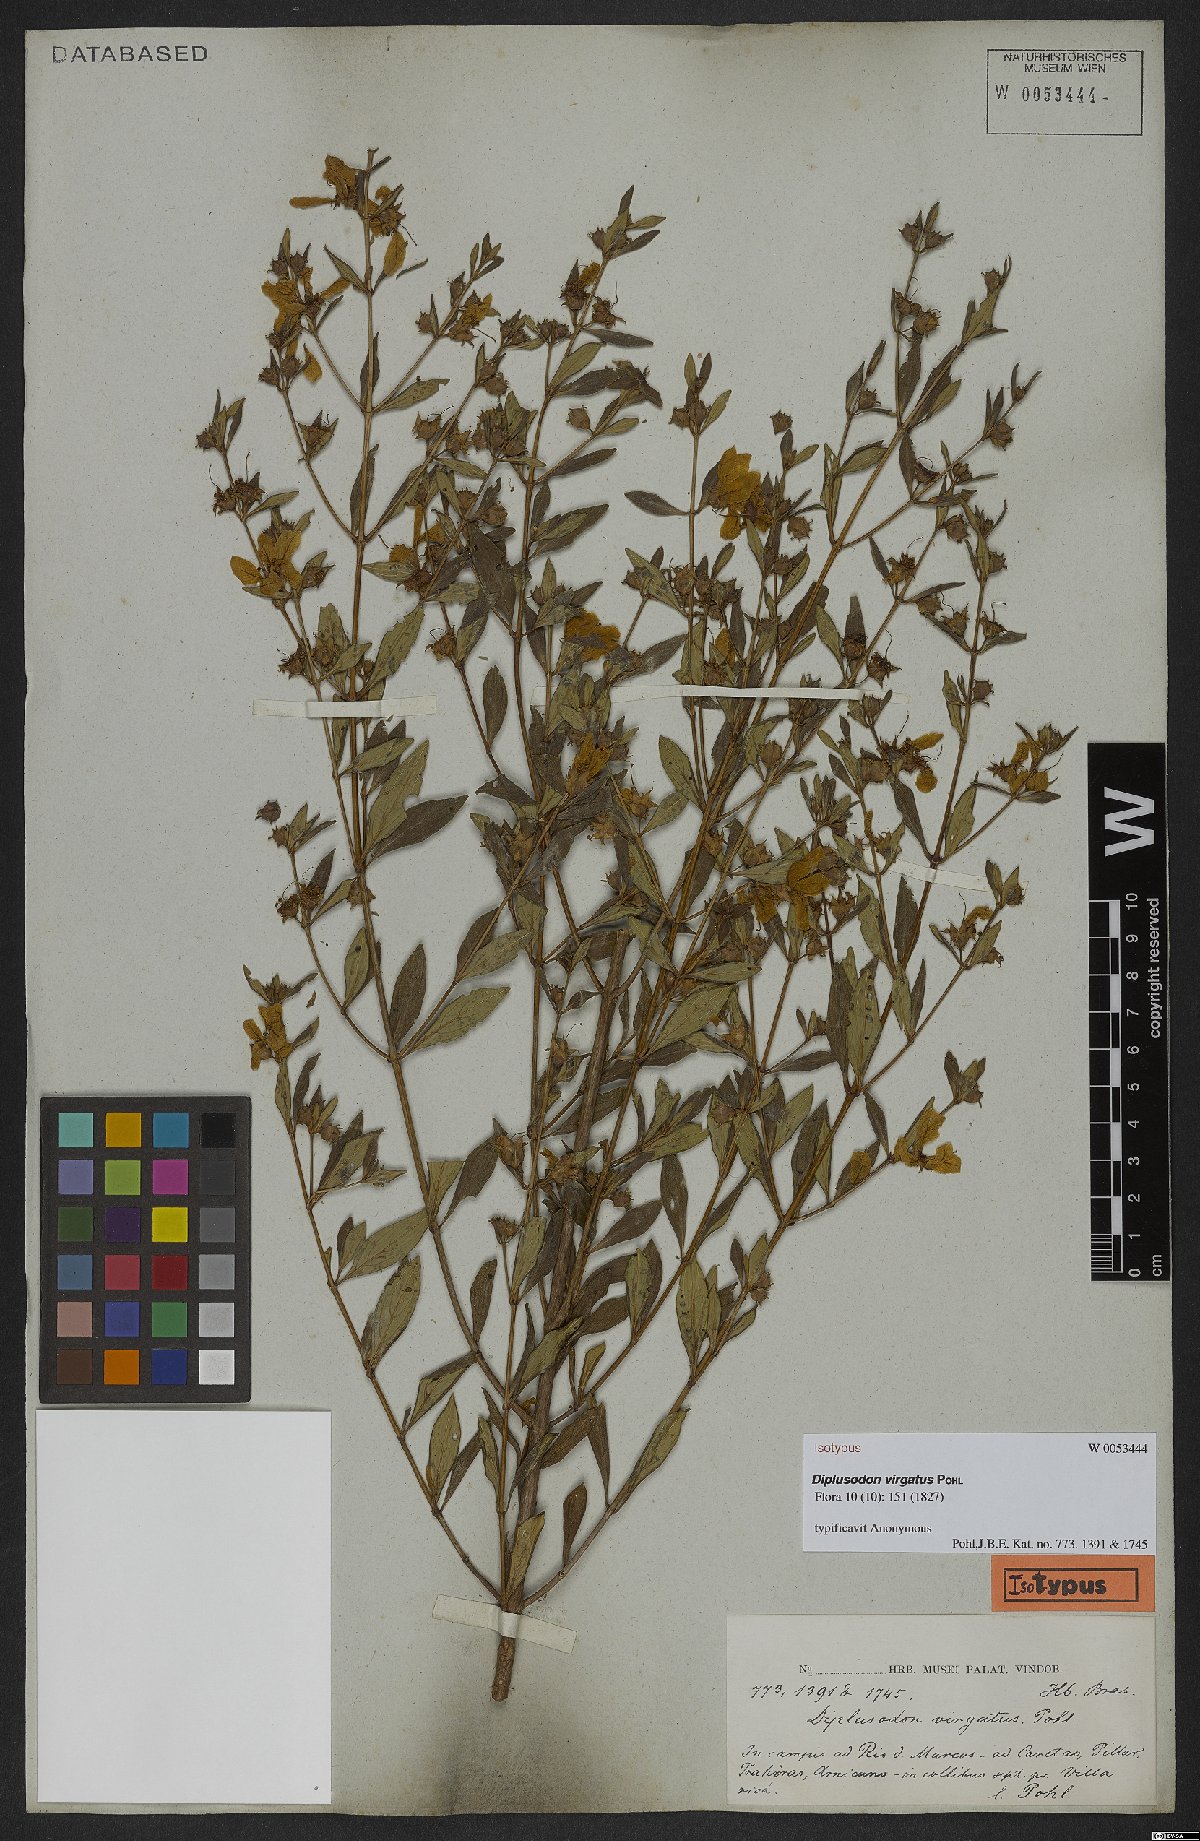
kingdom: Plantae
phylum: Tracheophyta
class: Magnoliopsida
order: Myrtales
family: Lythraceae
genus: Diplusodon
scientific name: Diplusodon virgatus
